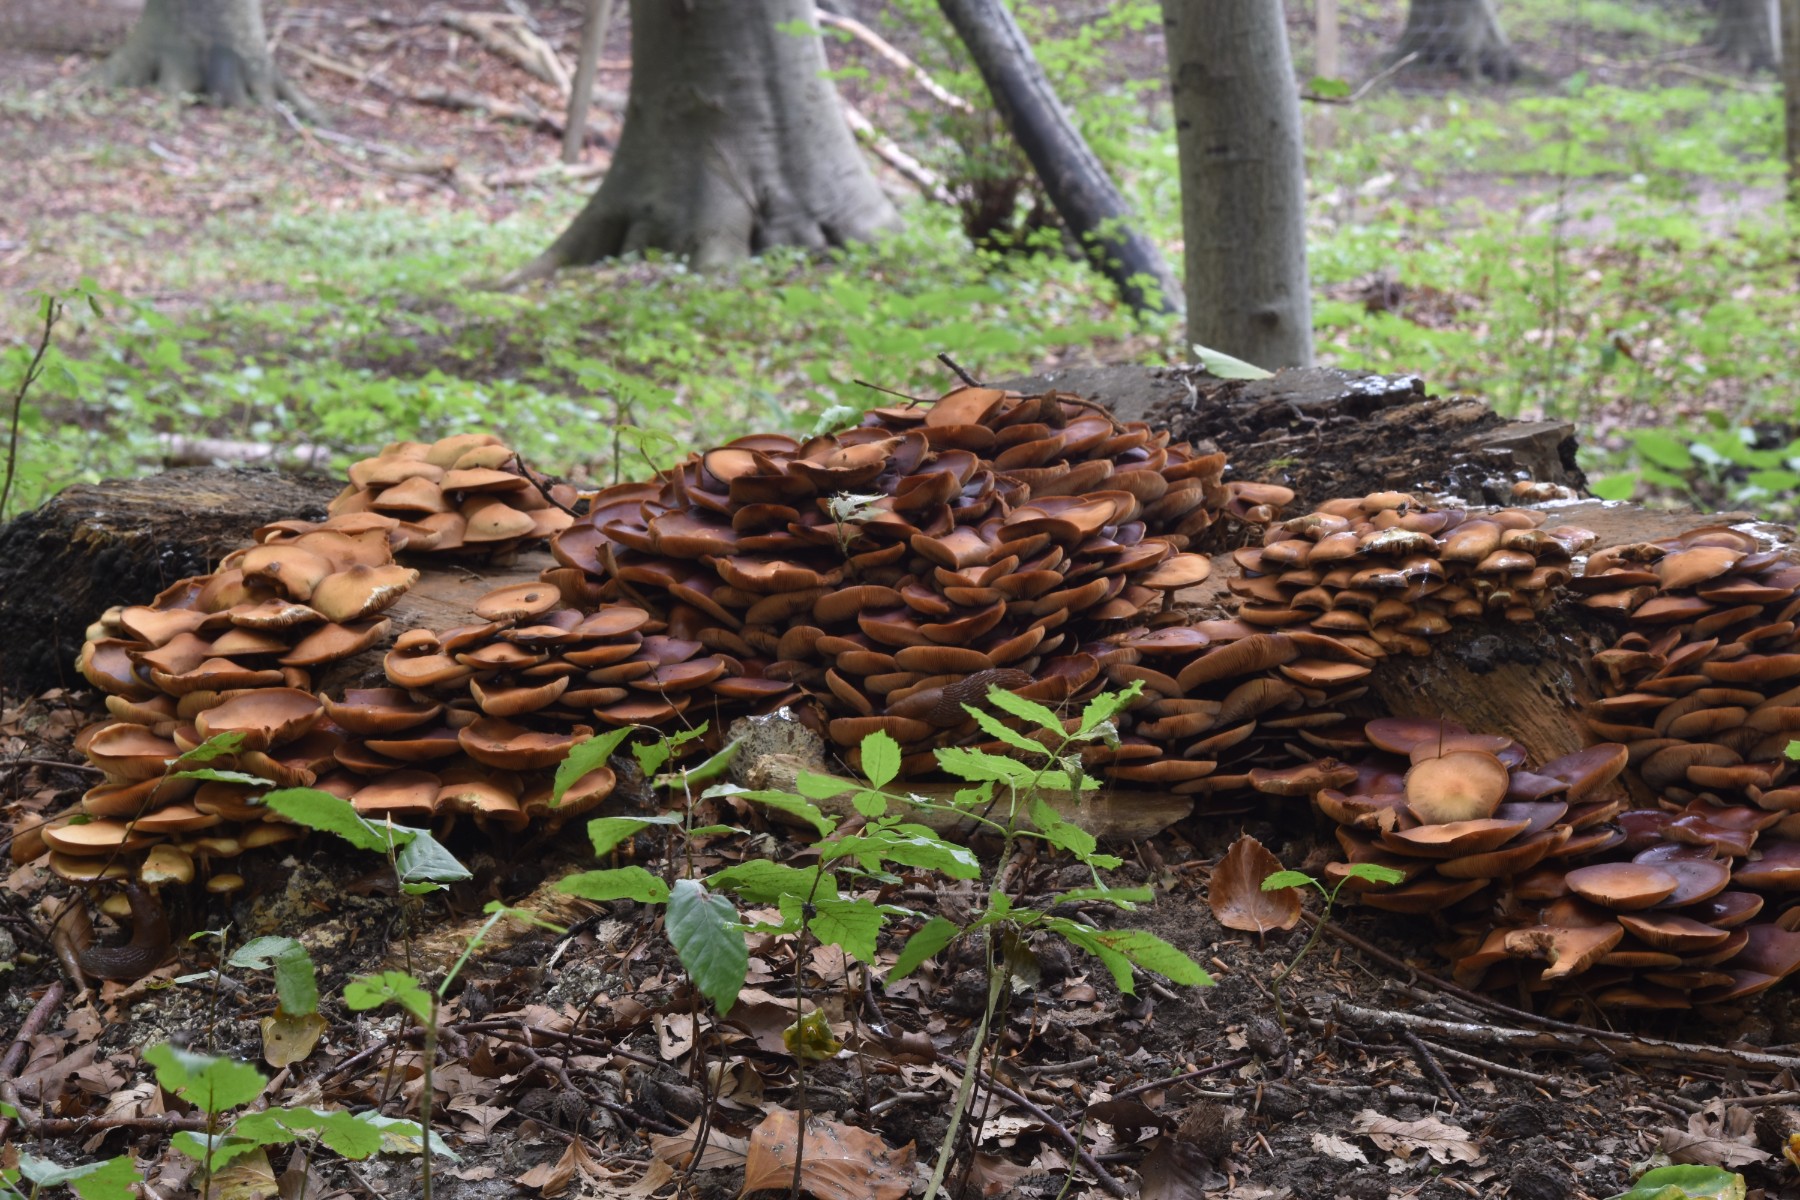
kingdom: Fungi
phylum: Basidiomycota
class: Agaricomycetes
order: Agaricales
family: Strophariaceae
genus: Kuehneromyces
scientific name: Kuehneromyces mutabilis
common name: foranderlig skælhat
